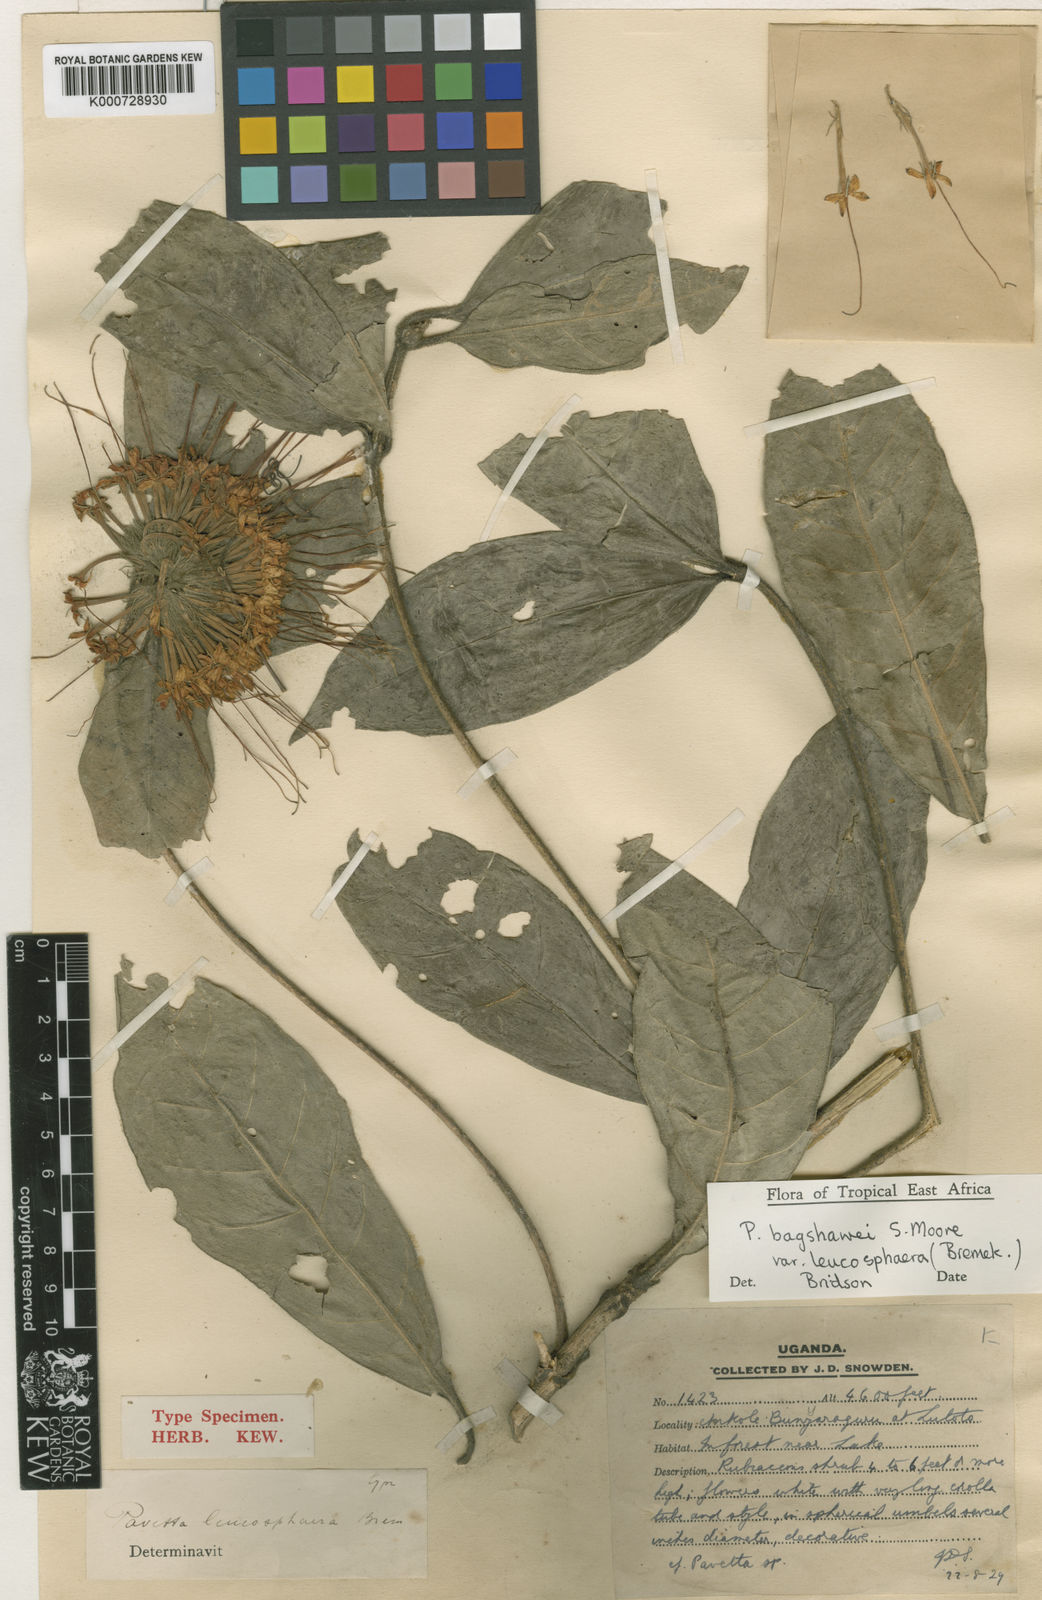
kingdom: Plantae
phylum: Tracheophyta
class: Magnoliopsida
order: Gentianales
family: Rubiaceae
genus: Pavetta
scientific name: Pavetta bagshawei
